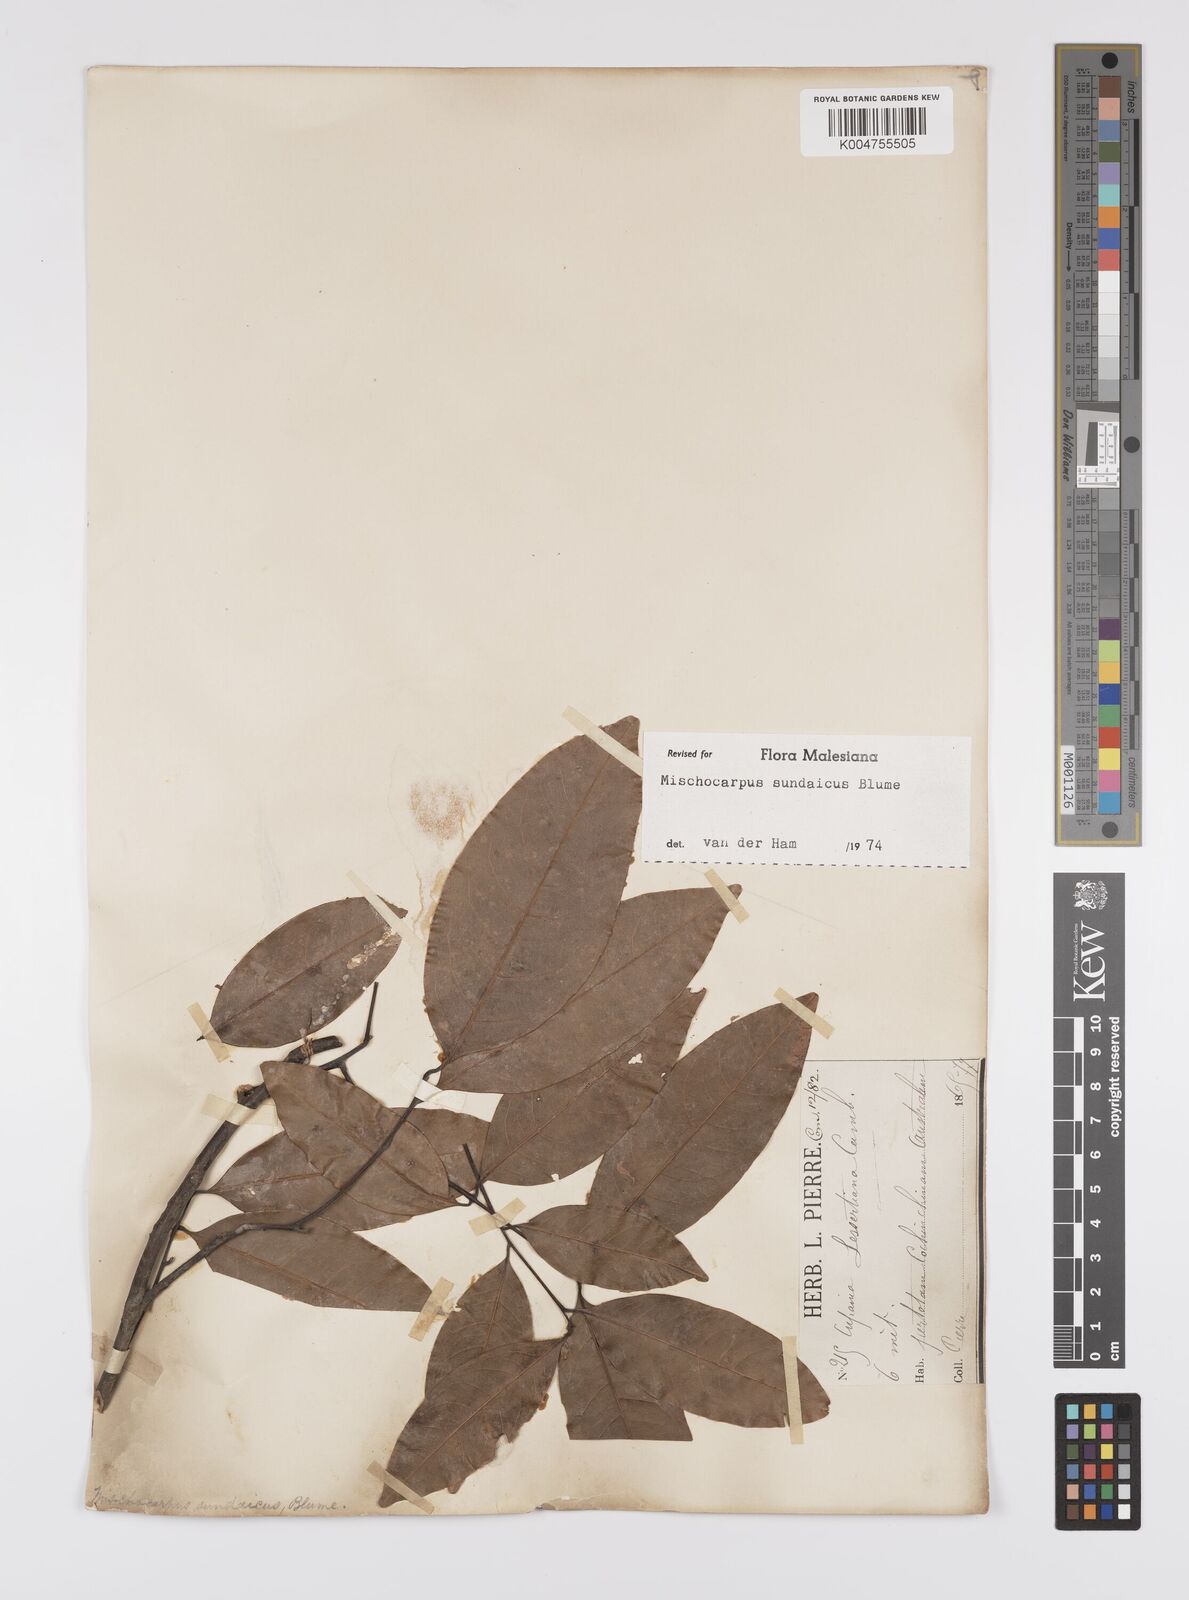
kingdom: Plantae
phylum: Tracheophyta
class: Magnoliopsida
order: Sapindales
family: Sapindaceae
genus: Mischocarpus
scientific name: Mischocarpus sundaicus
